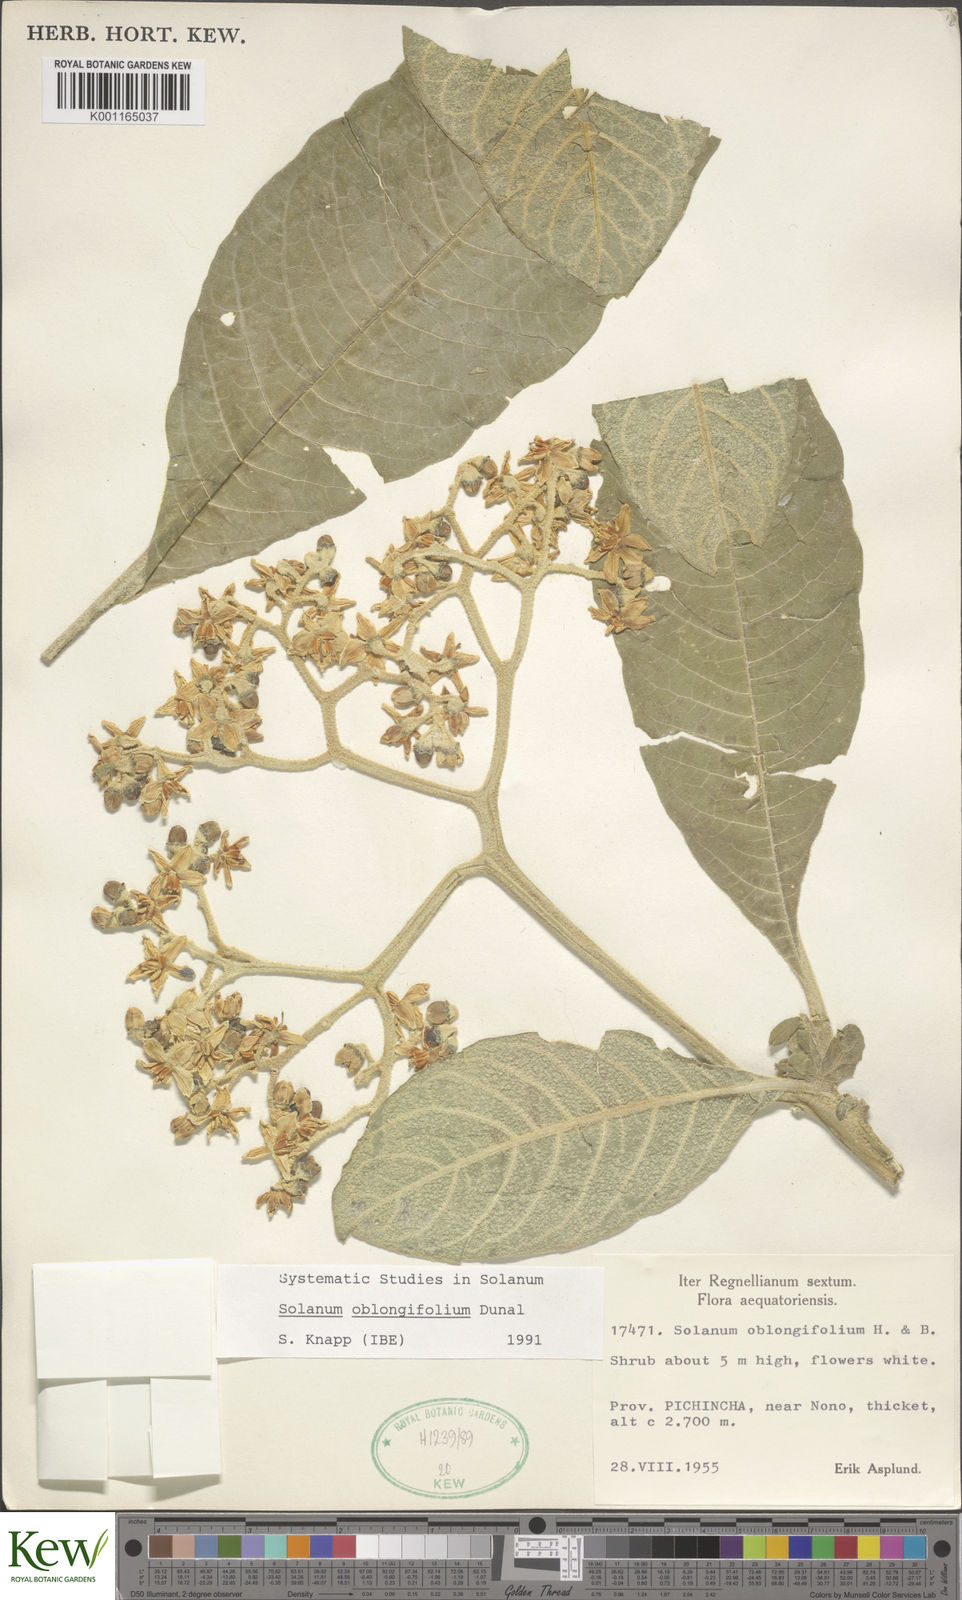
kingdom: Plantae
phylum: Tracheophyta
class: Magnoliopsida
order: Solanales
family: Solanaceae
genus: Solanum
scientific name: Solanum oblongifolium
